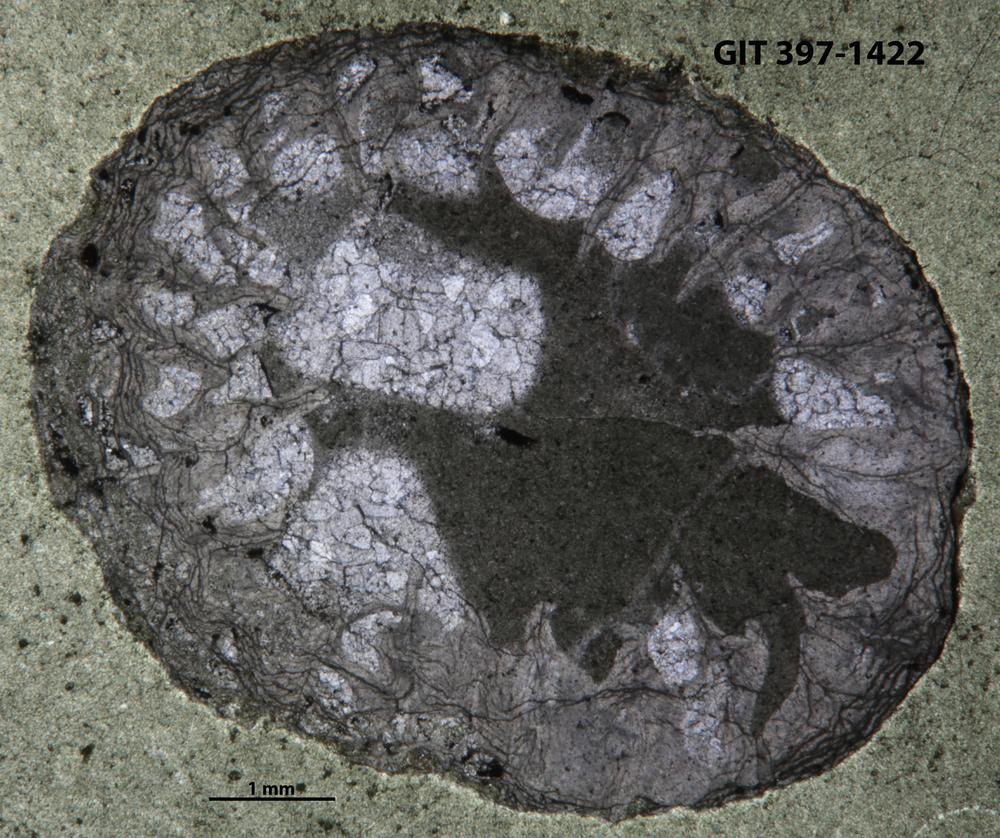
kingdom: Animalia
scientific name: Animalia
